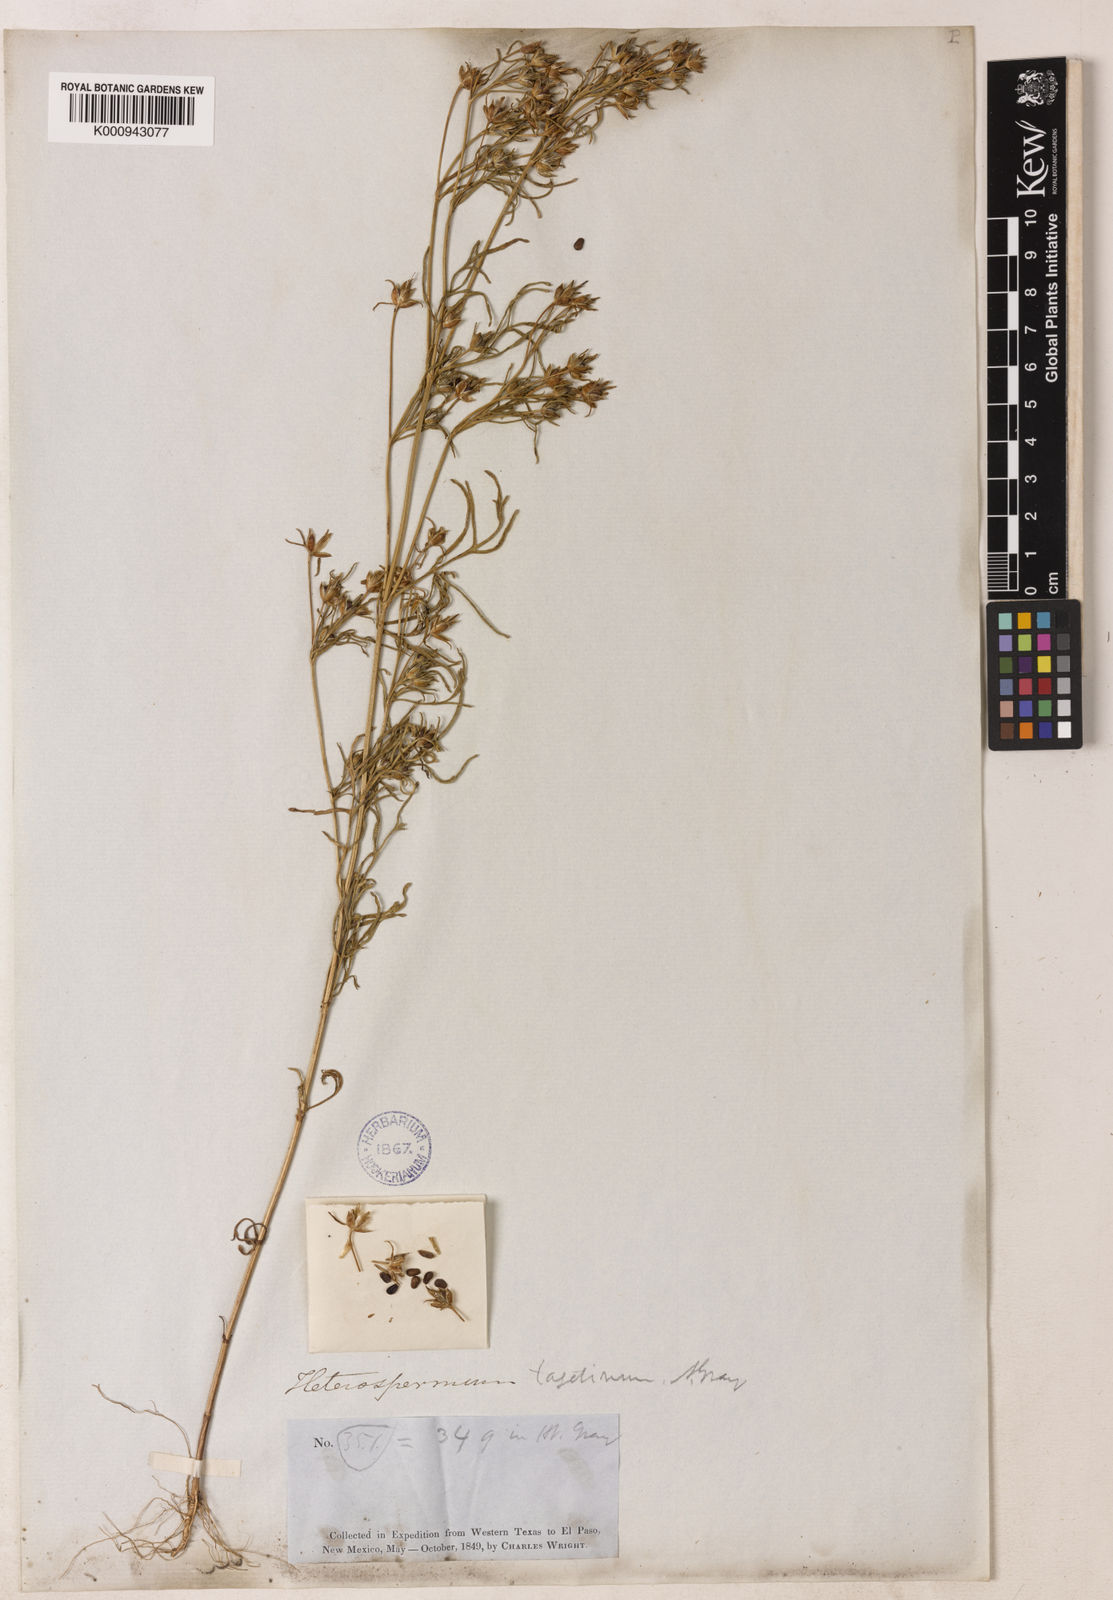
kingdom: Plantae
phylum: Tracheophyta
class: Magnoliopsida
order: Asterales
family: Asteraceae
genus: Heterosperma
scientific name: Heterosperma pinnatum
